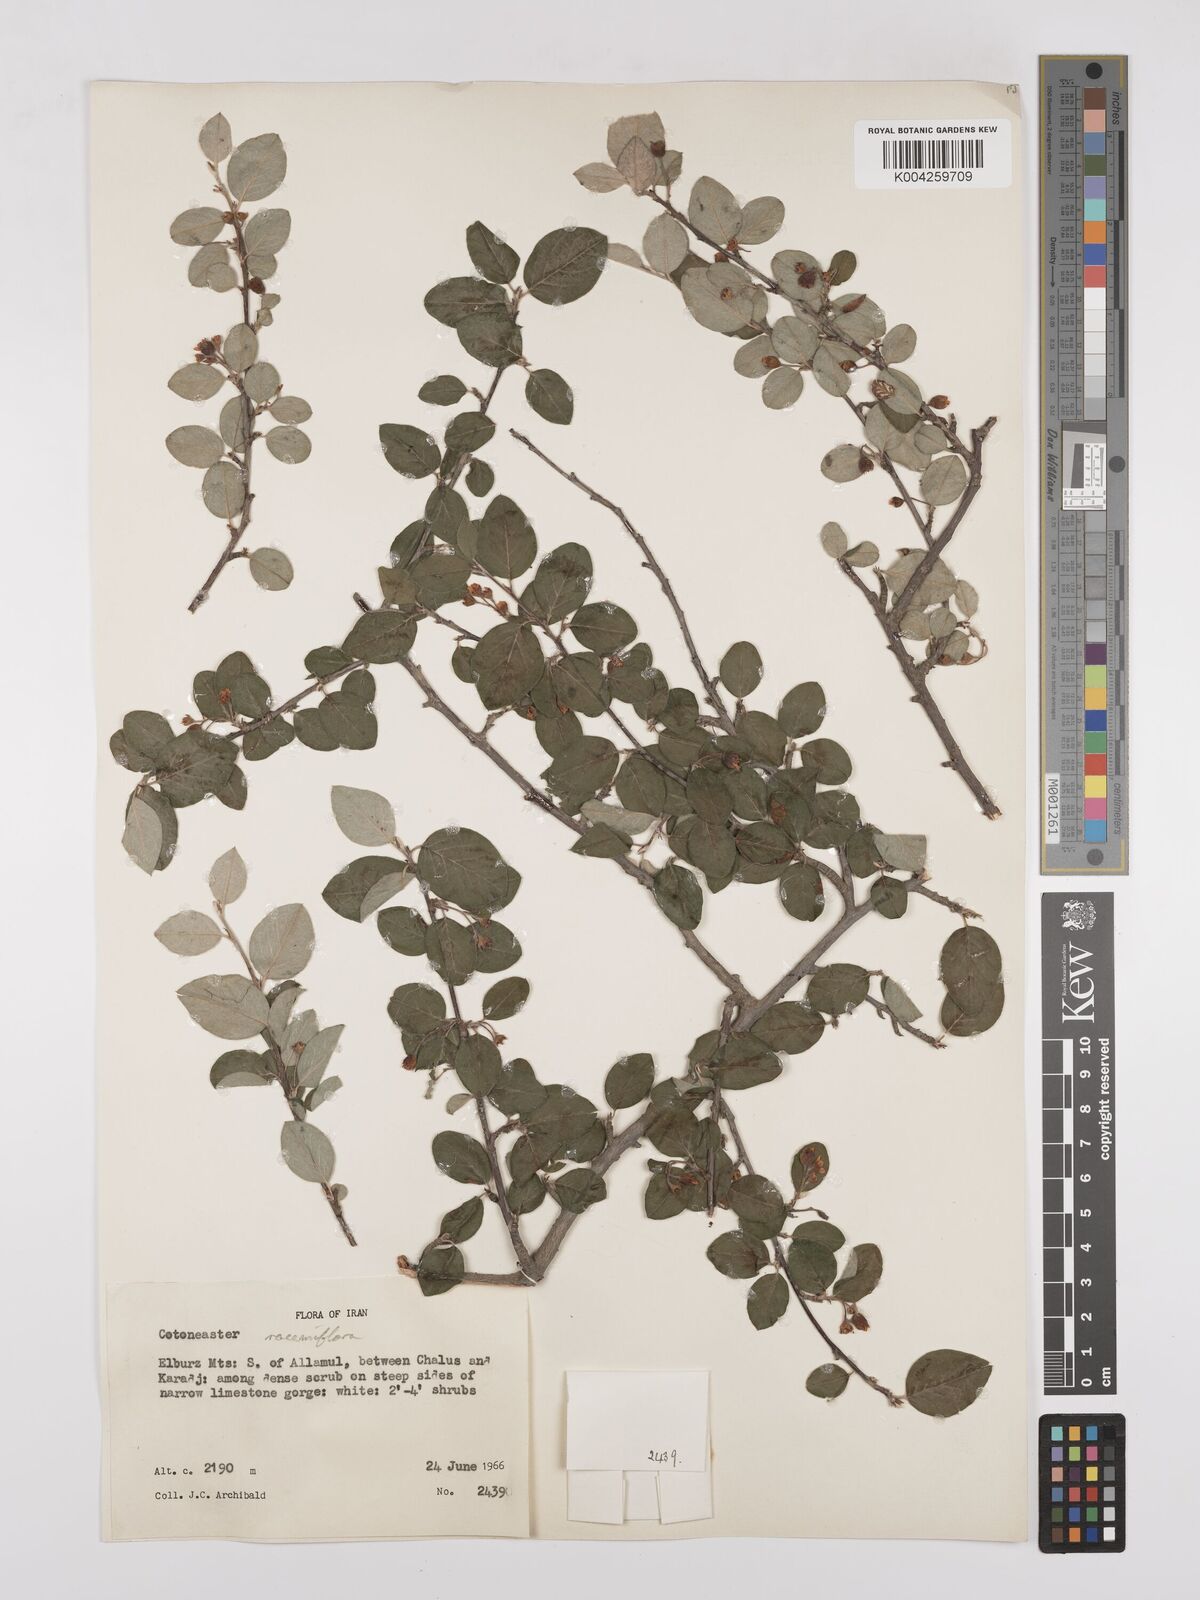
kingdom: Plantae
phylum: Tracheophyta
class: Magnoliopsida
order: Rosales
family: Rosaceae
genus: Cotoneaster
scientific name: Cotoneaster racemiflorus
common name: Cluster-flower cotoneaster
